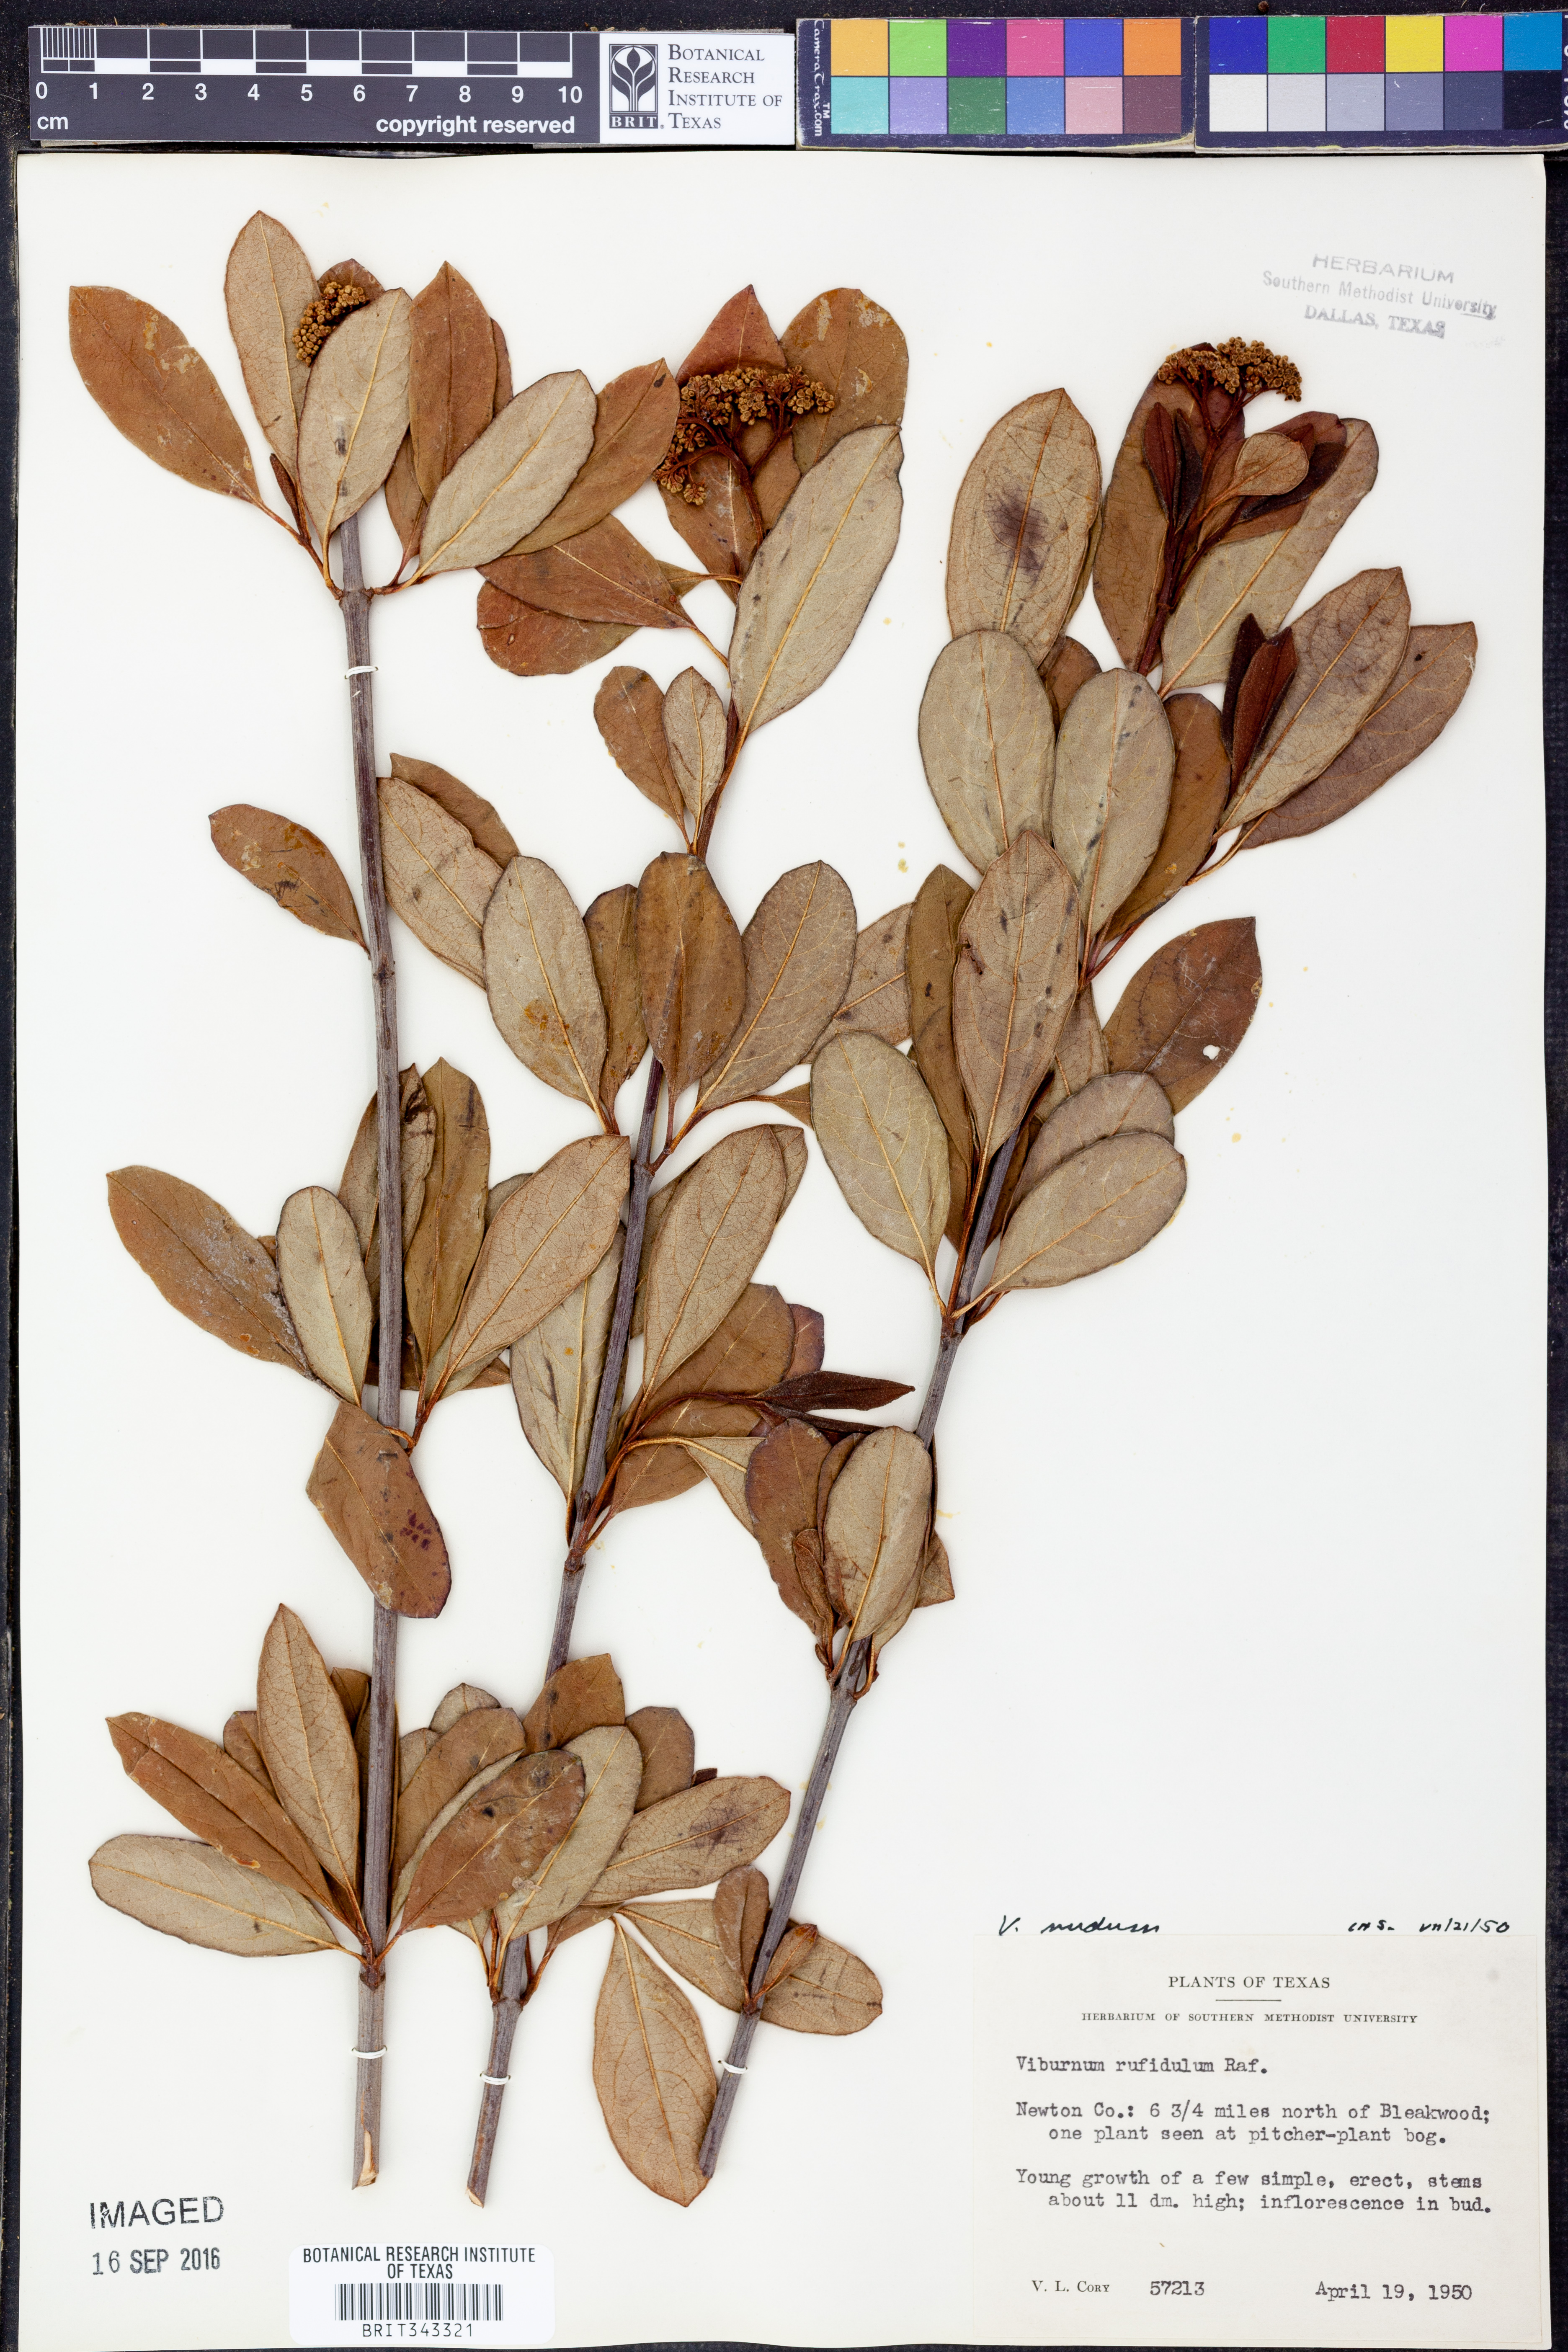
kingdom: Plantae
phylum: Tracheophyta
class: Magnoliopsida
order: Dipsacales
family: Viburnaceae
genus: Viburnum
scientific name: Viburnum nudum
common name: Possum haw
